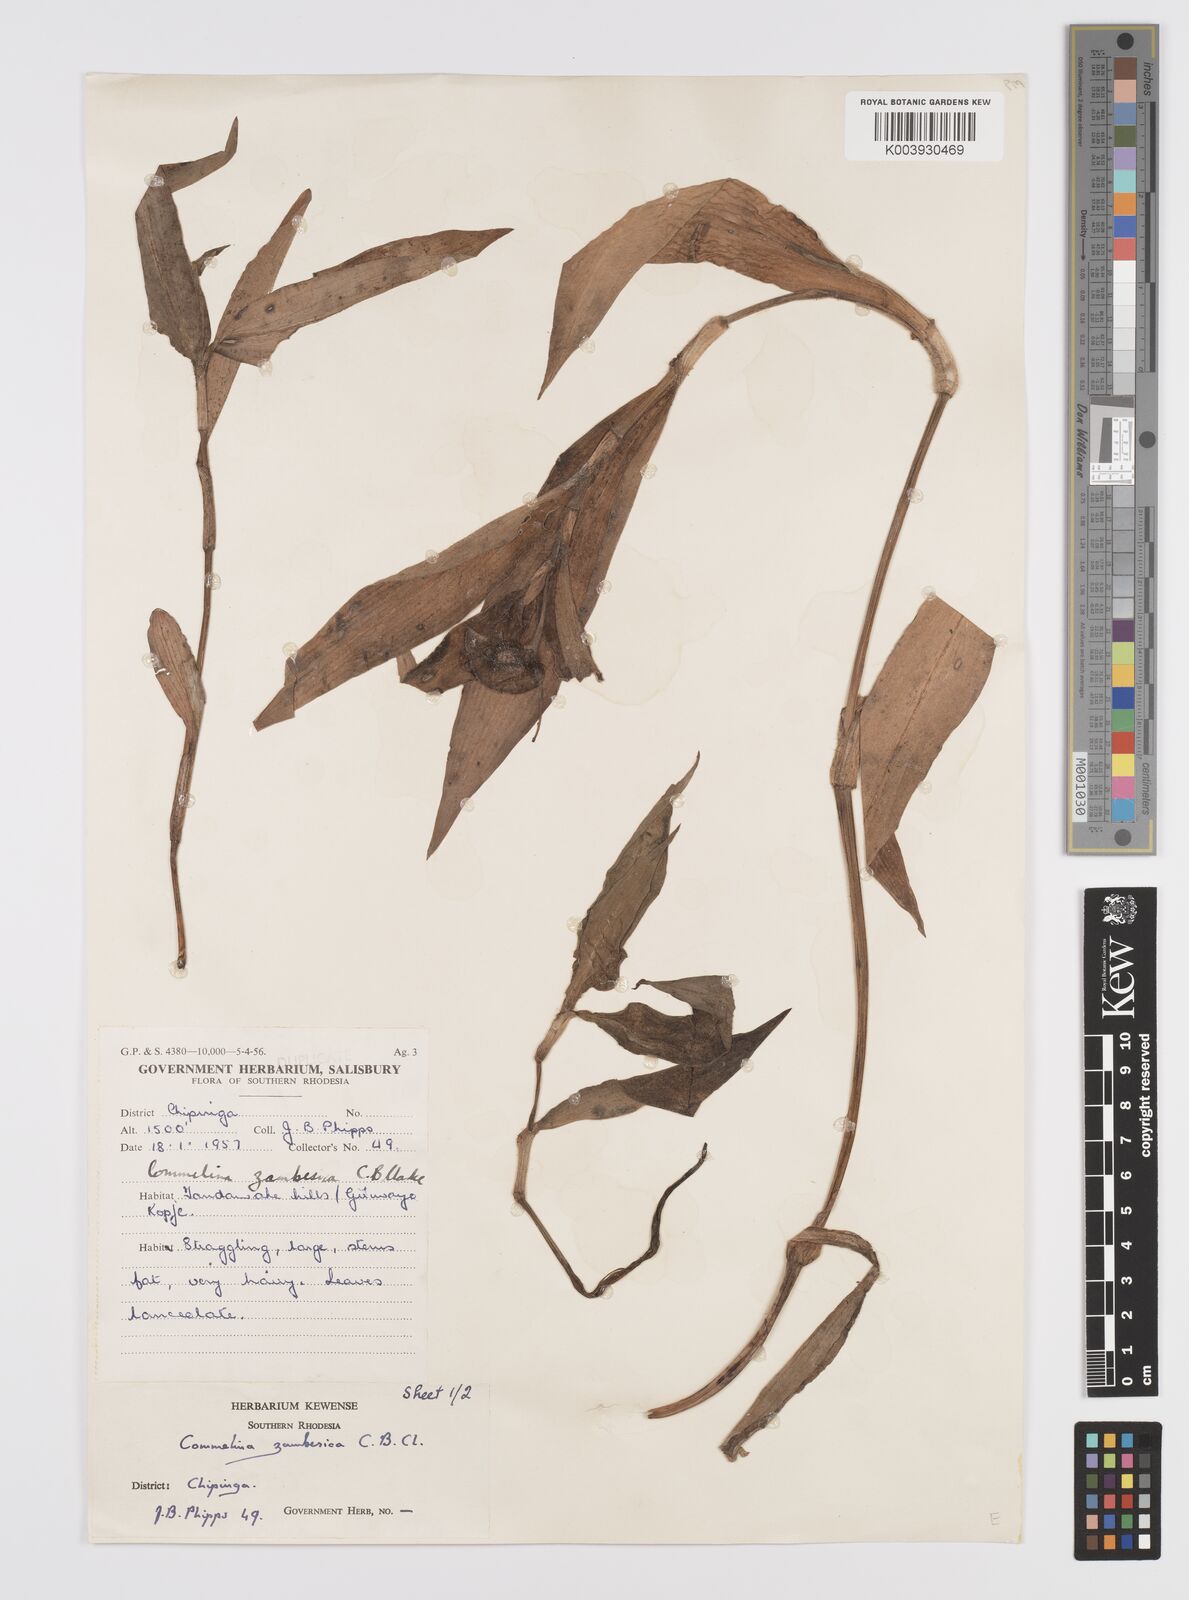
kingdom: Plantae
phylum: Tracheophyta
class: Liliopsida
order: Commelinales
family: Commelinaceae
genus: Commelina
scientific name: Commelina zambesica
